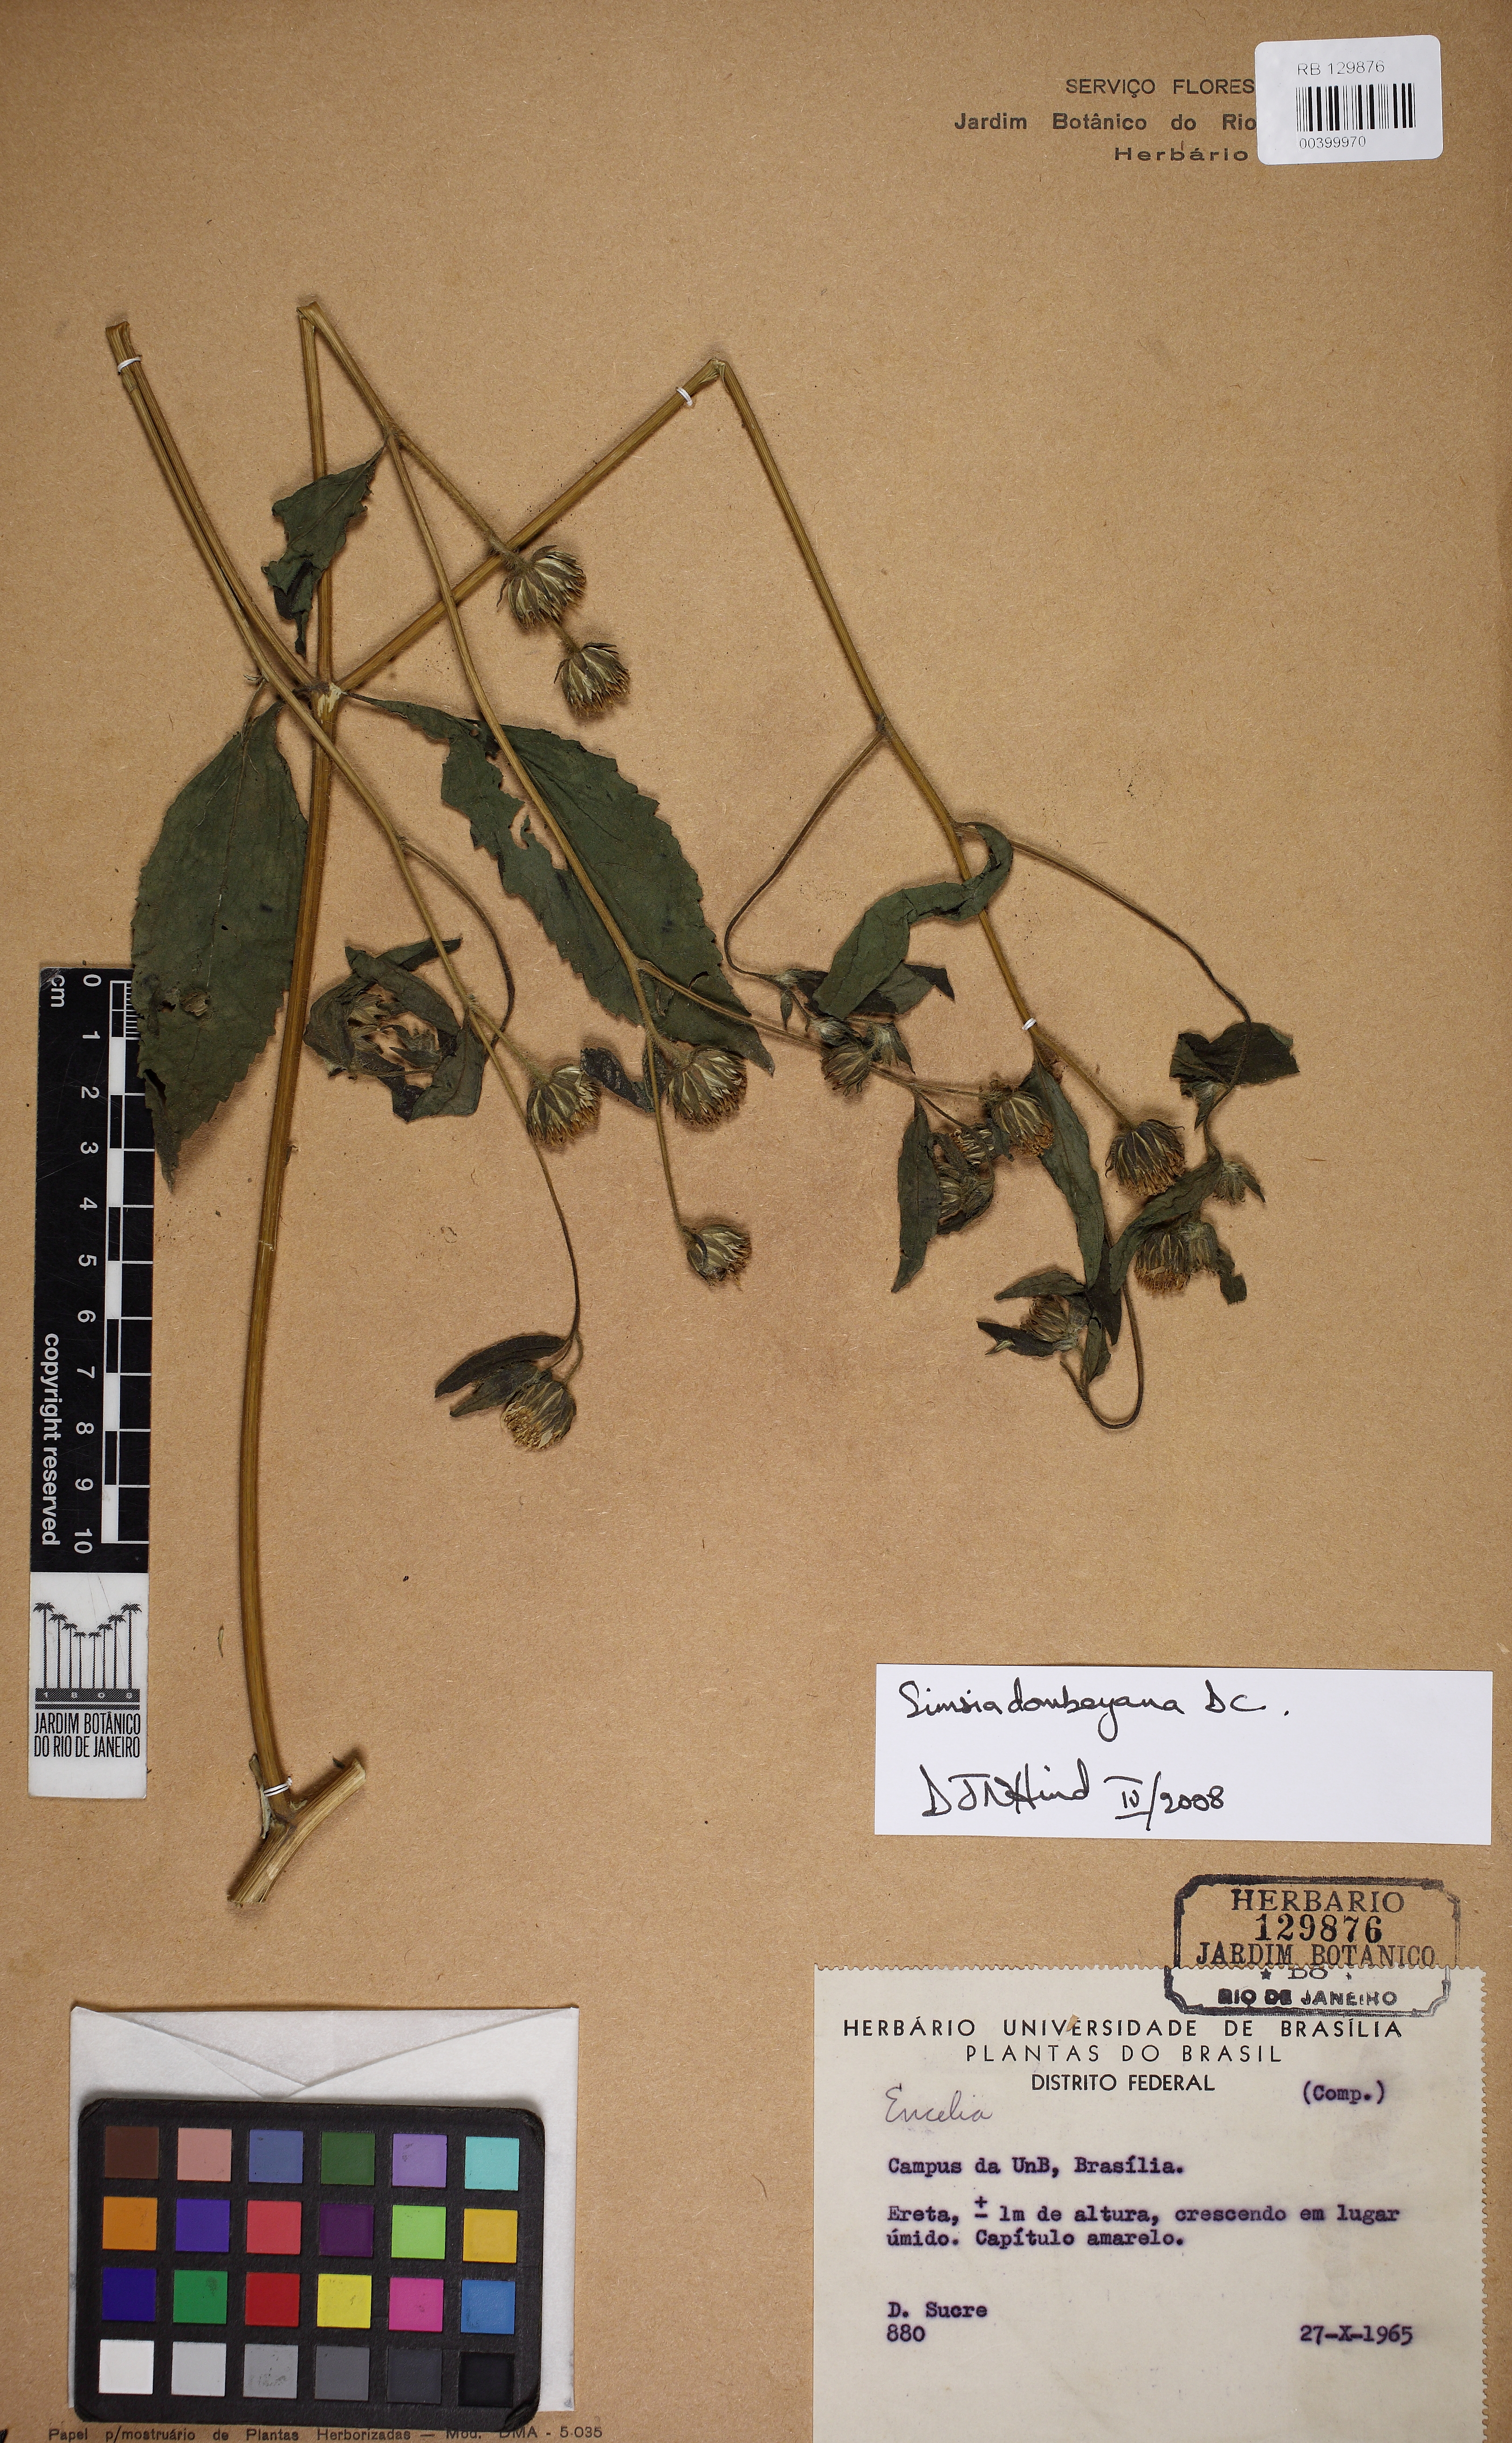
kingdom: Plantae
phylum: Tracheophyta
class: Magnoliopsida
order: Asterales
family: Asteraceae
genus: Simsia
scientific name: Simsia dombeyana
